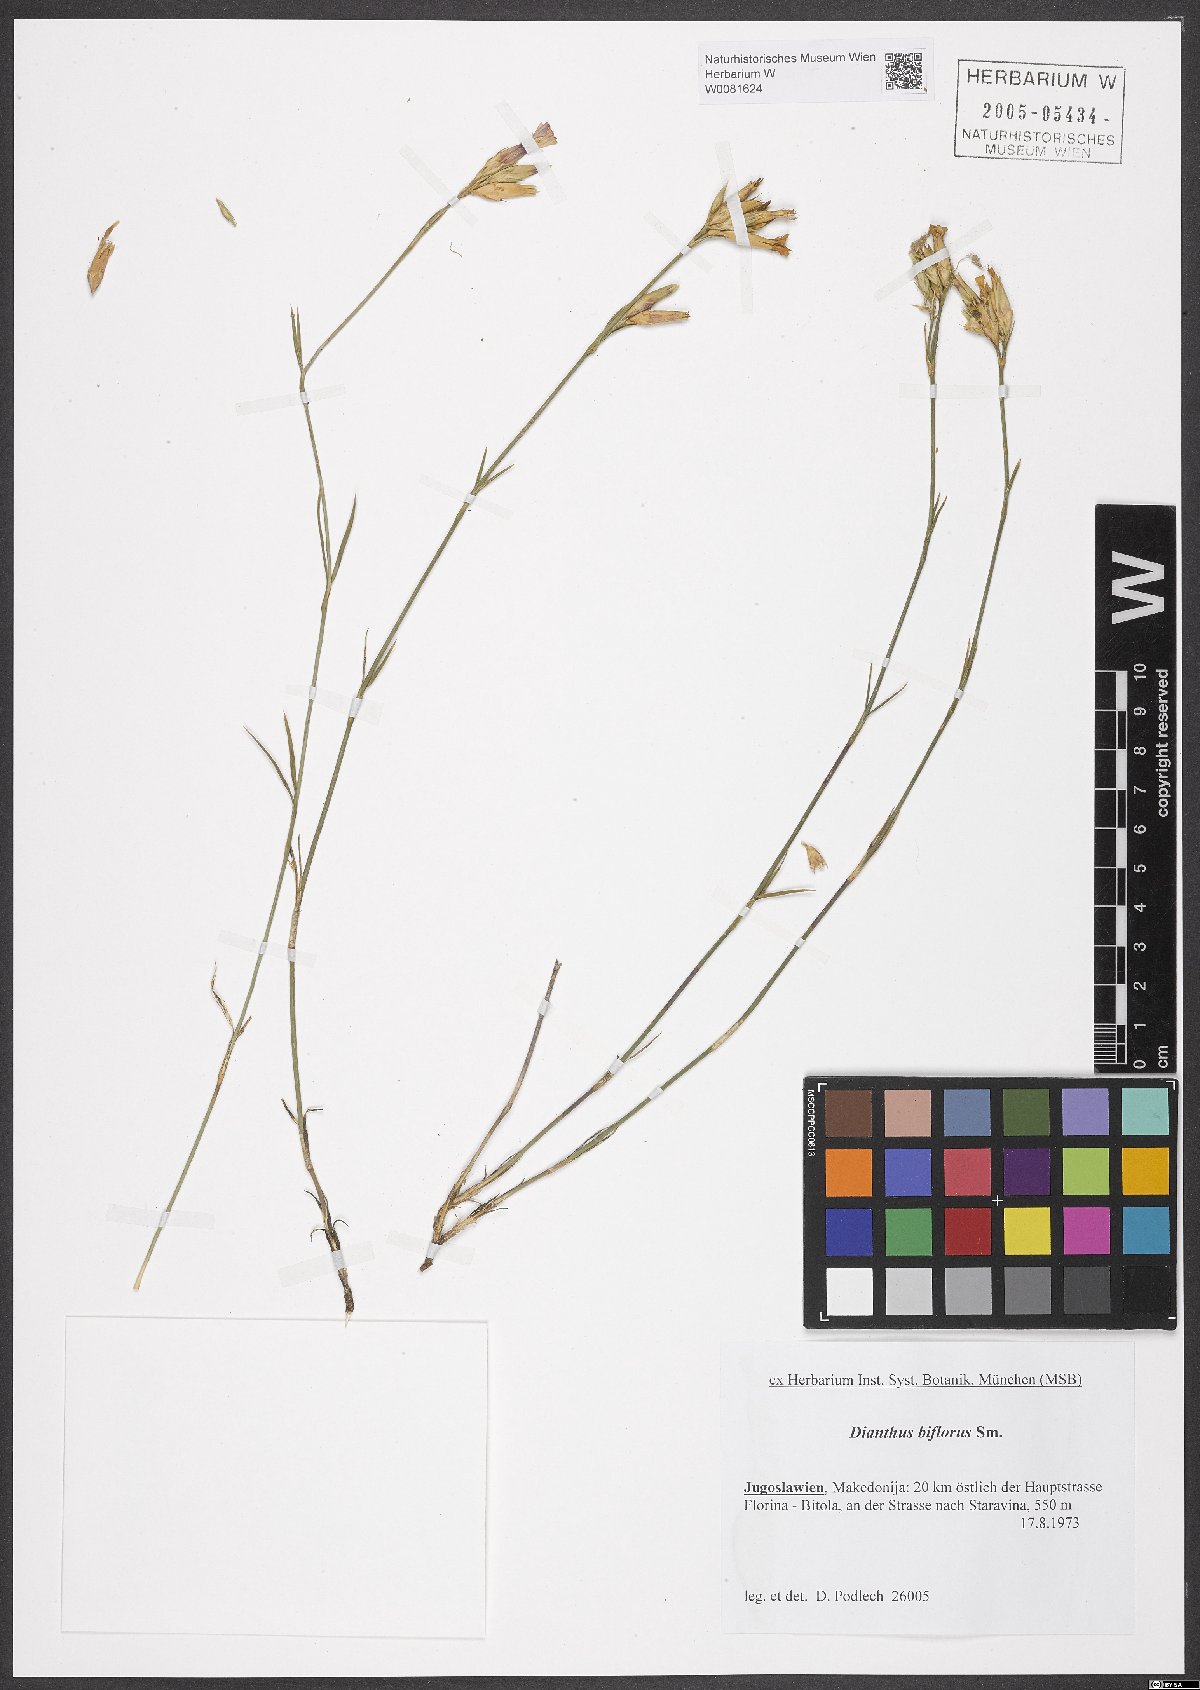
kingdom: Plantae
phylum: Tracheophyta
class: Magnoliopsida
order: Caryophyllales
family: Caryophyllaceae
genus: Dianthus
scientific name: Dianthus biflorus
